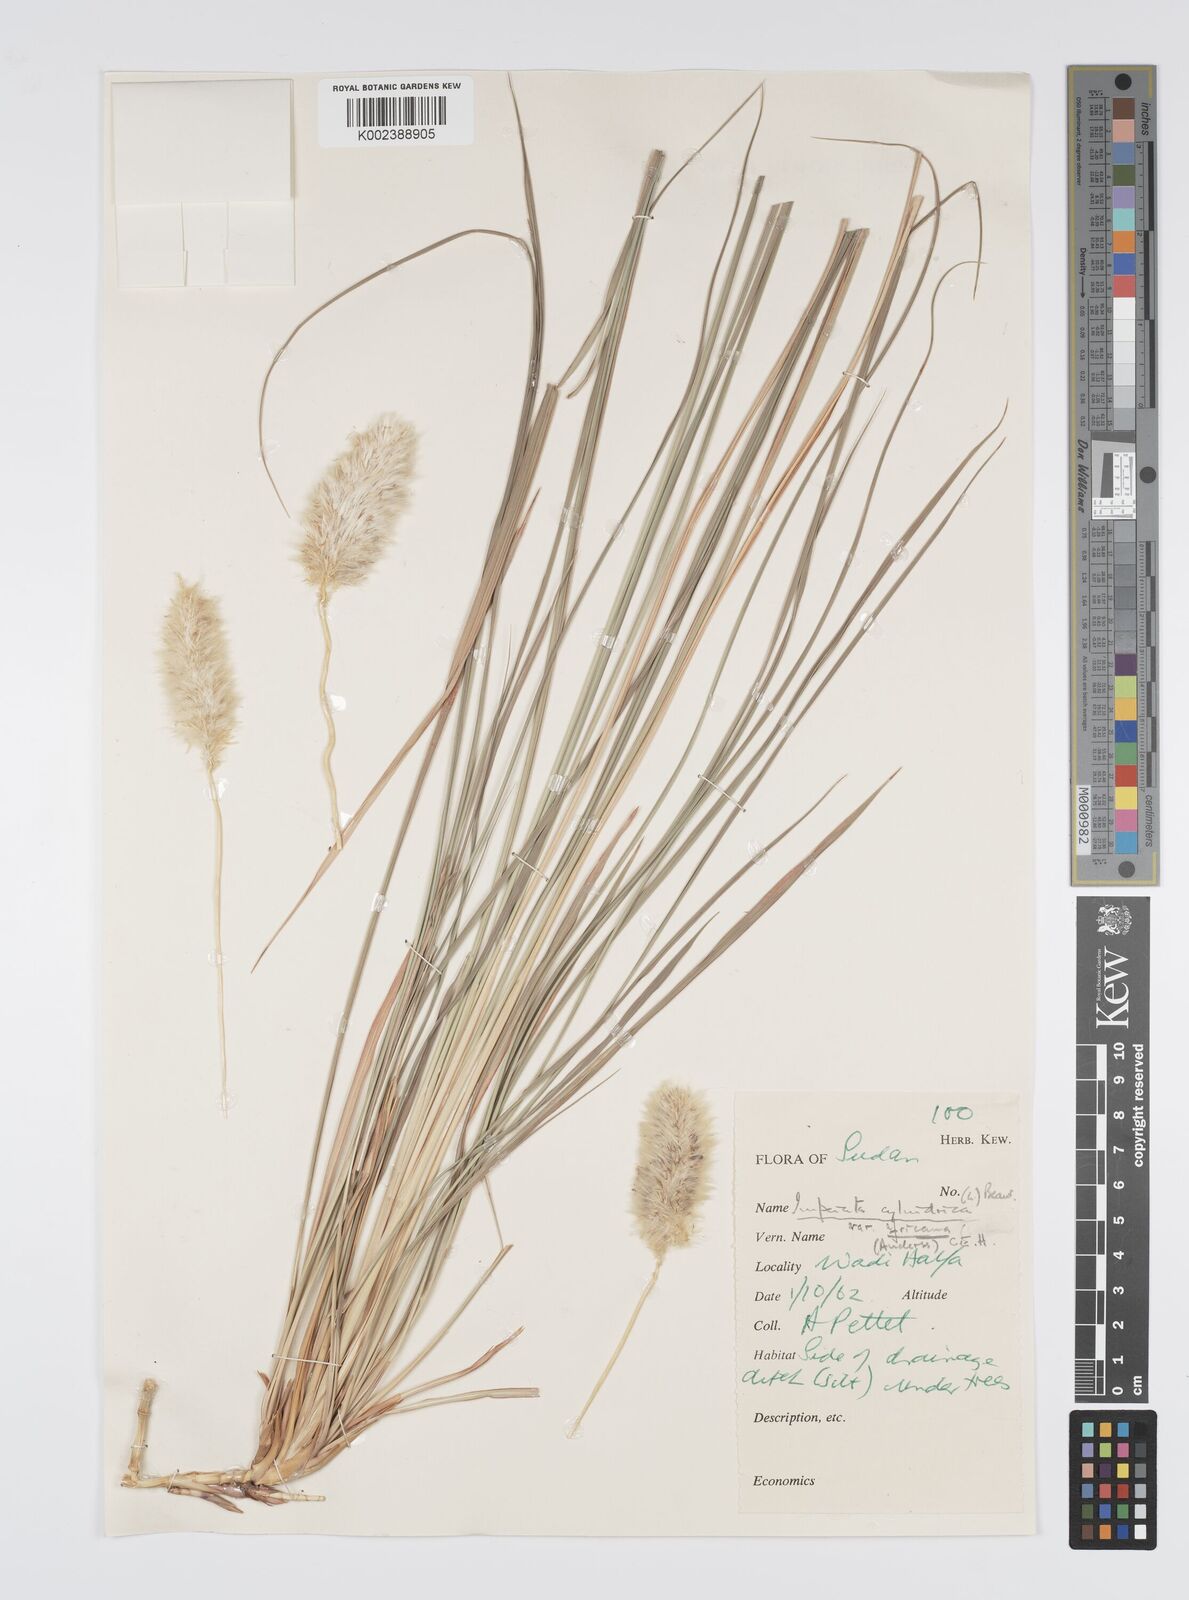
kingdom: Plantae
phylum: Tracheophyta
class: Liliopsida
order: Poales
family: Poaceae
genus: Imperata
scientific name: Imperata cylindrica
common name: Cogongrass
